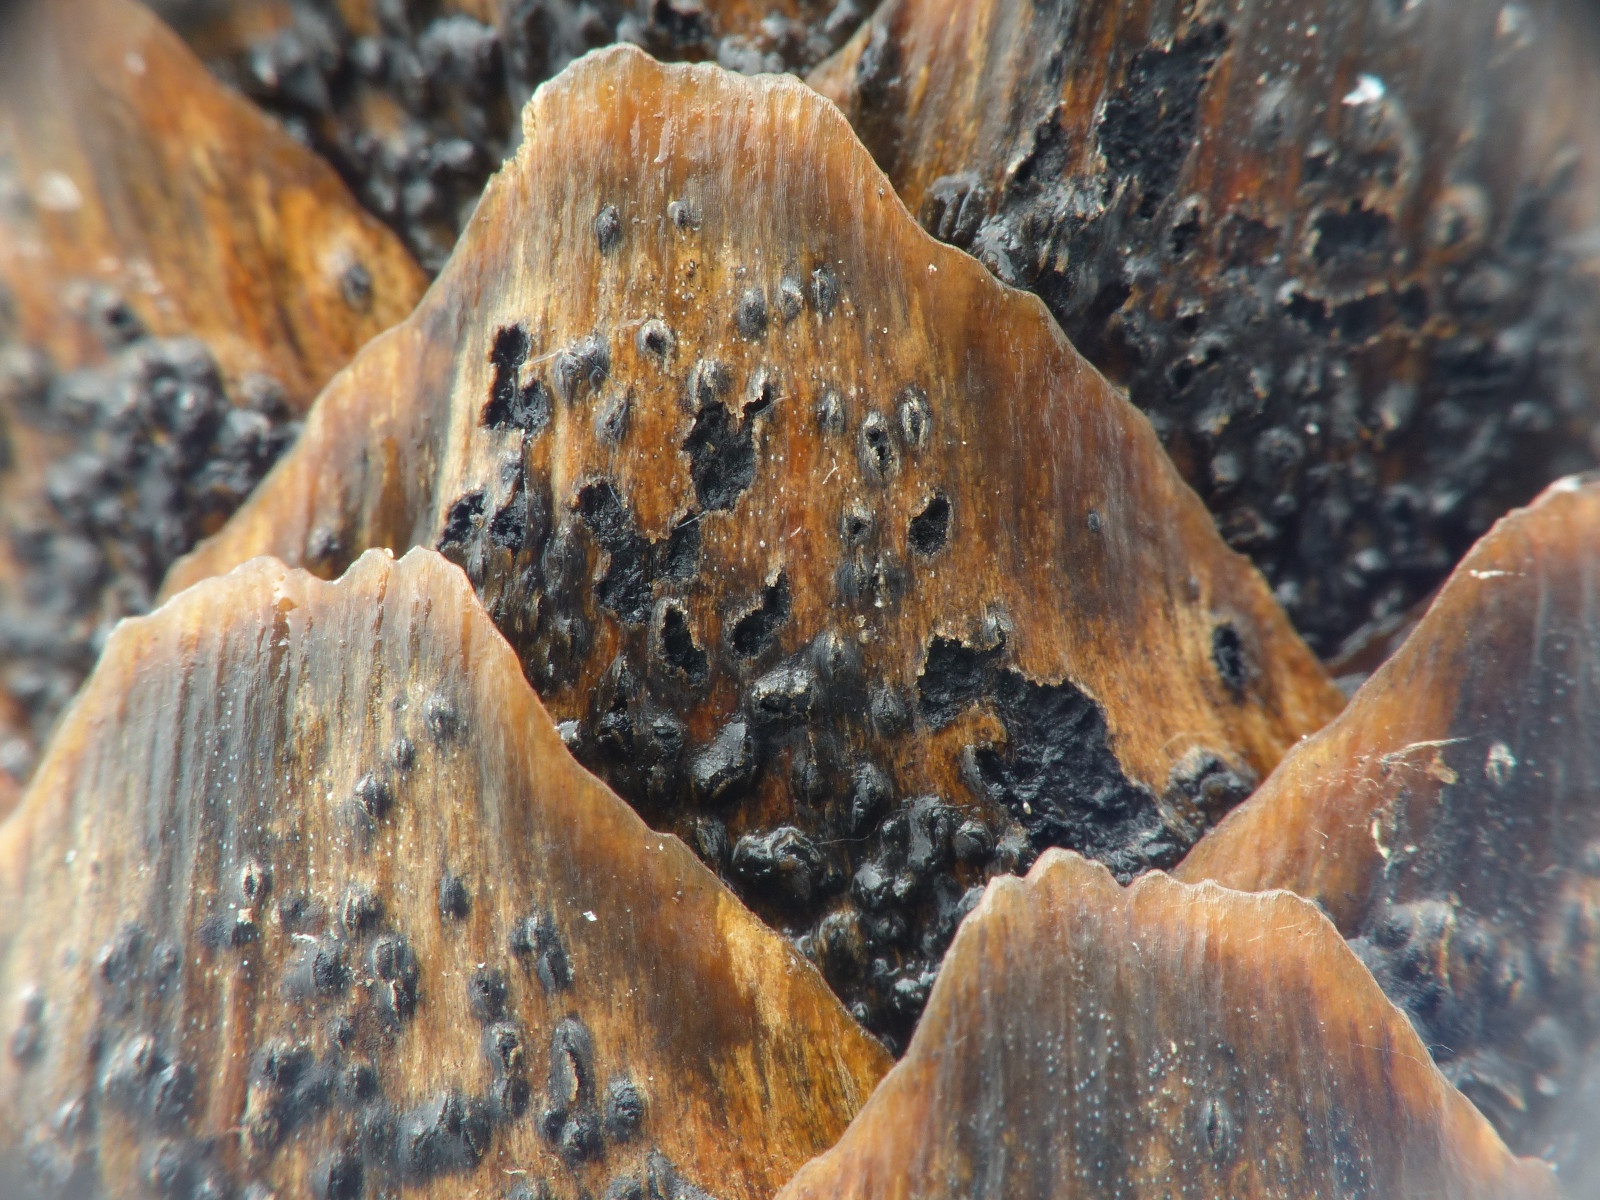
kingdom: Fungi
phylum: Ascomycota
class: Dothideomycetes
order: Botryosphaeriales
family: Botryosphaeriaceae
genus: Sphaeropsis
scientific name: Sphaeropsis sapinea
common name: Sphaeropsis blight
